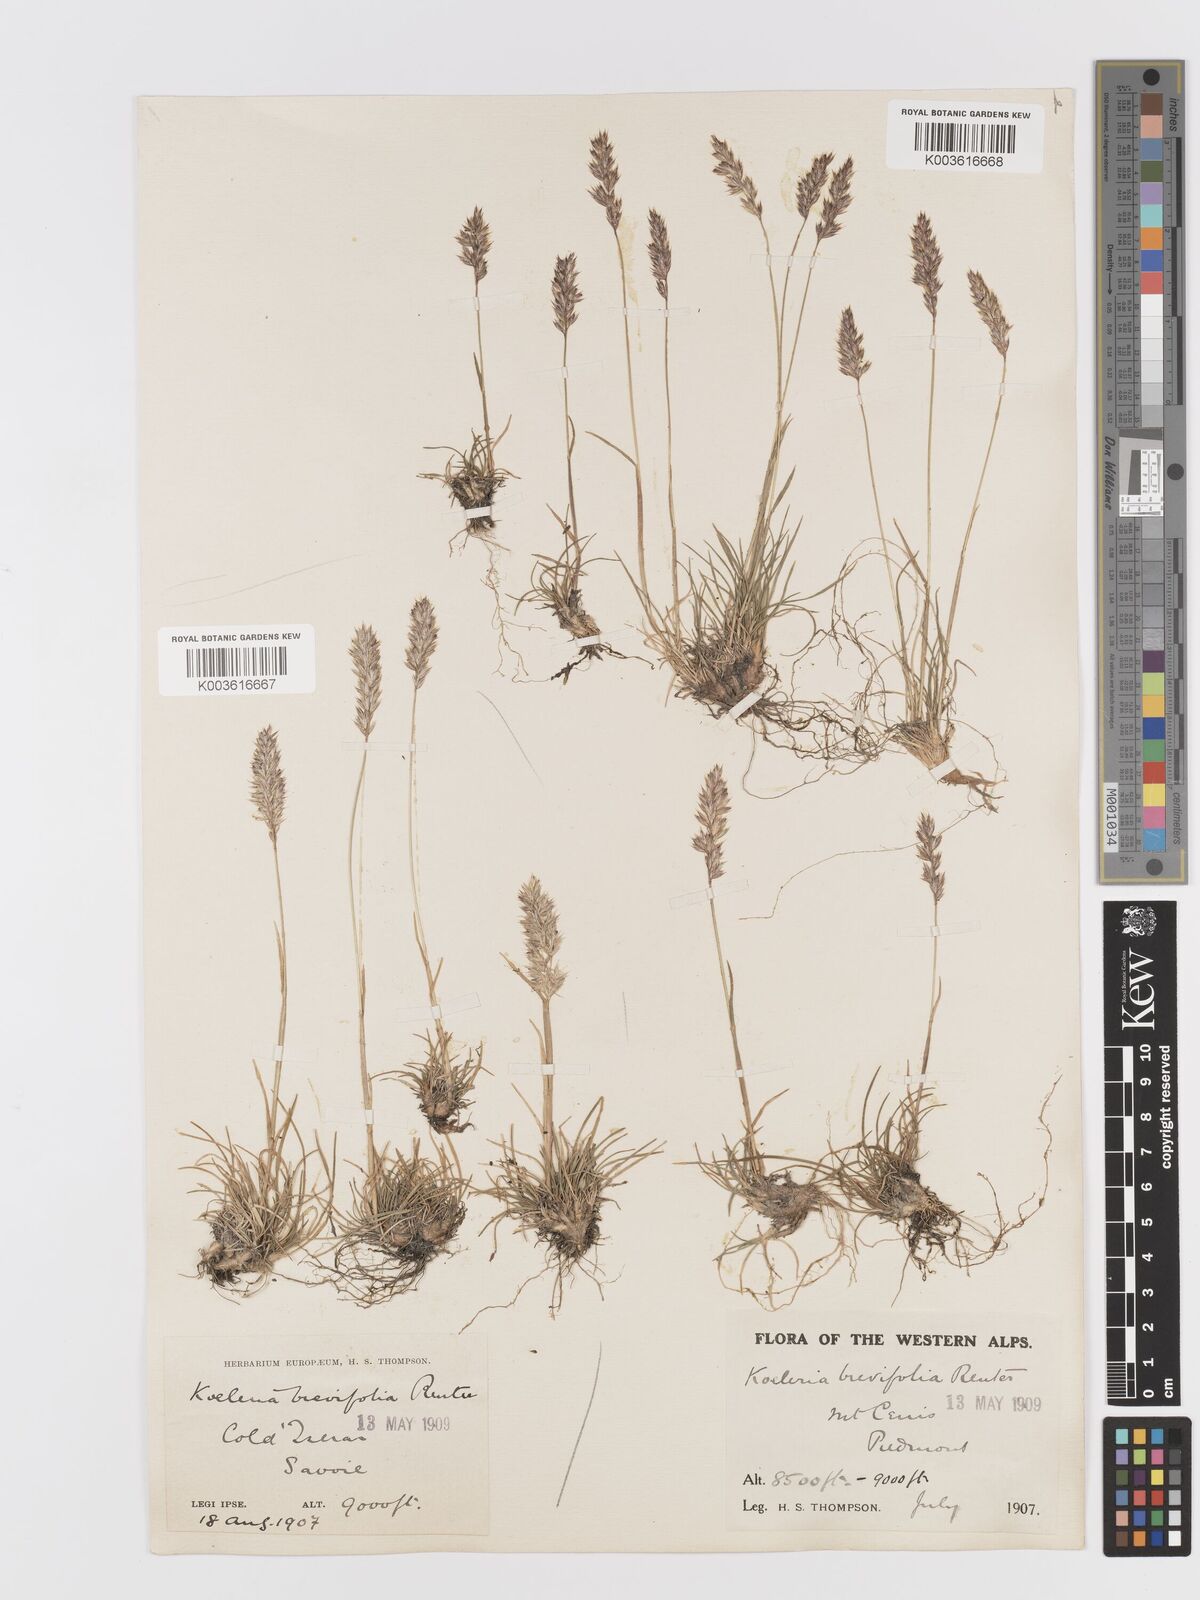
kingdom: Plantae
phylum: Tracheophyta
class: Liliopsida
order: Poales
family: Poaceae
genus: Koeleria
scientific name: Koeleria cenisia
